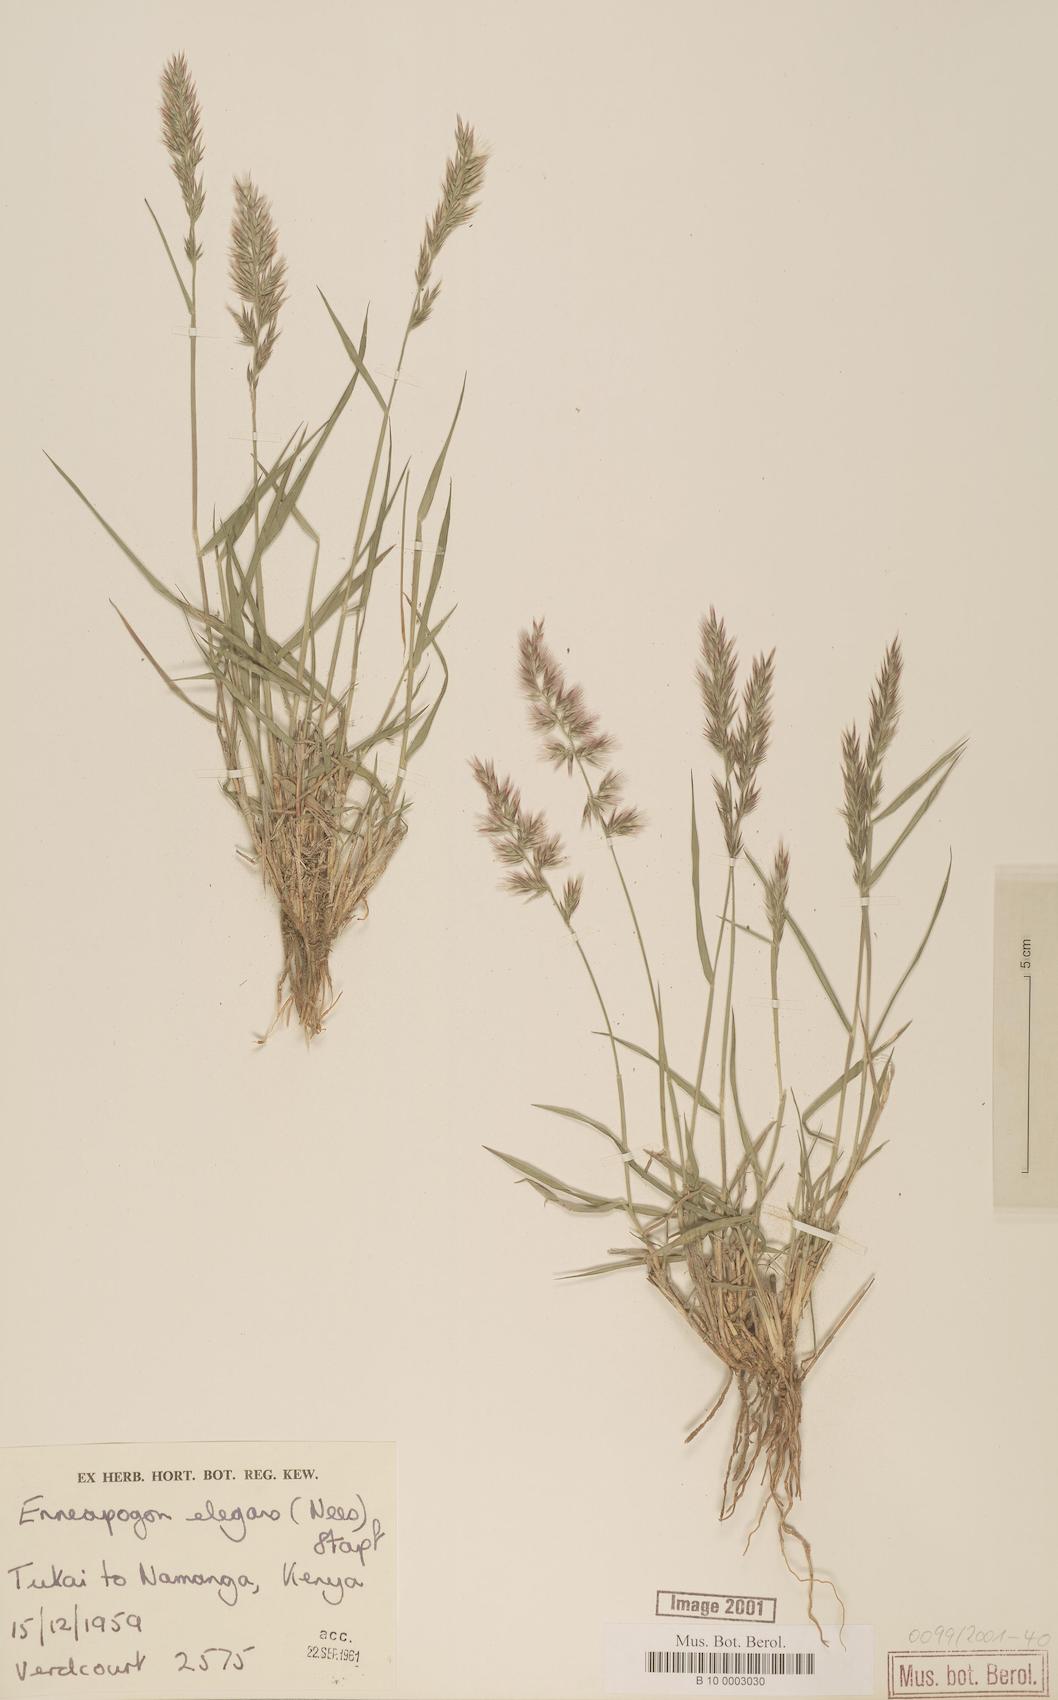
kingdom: Plantae
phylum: Tracheophyta
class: Liliopsida
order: Poales
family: Poaceae
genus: Enneapogon
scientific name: Enneapogon persicus
